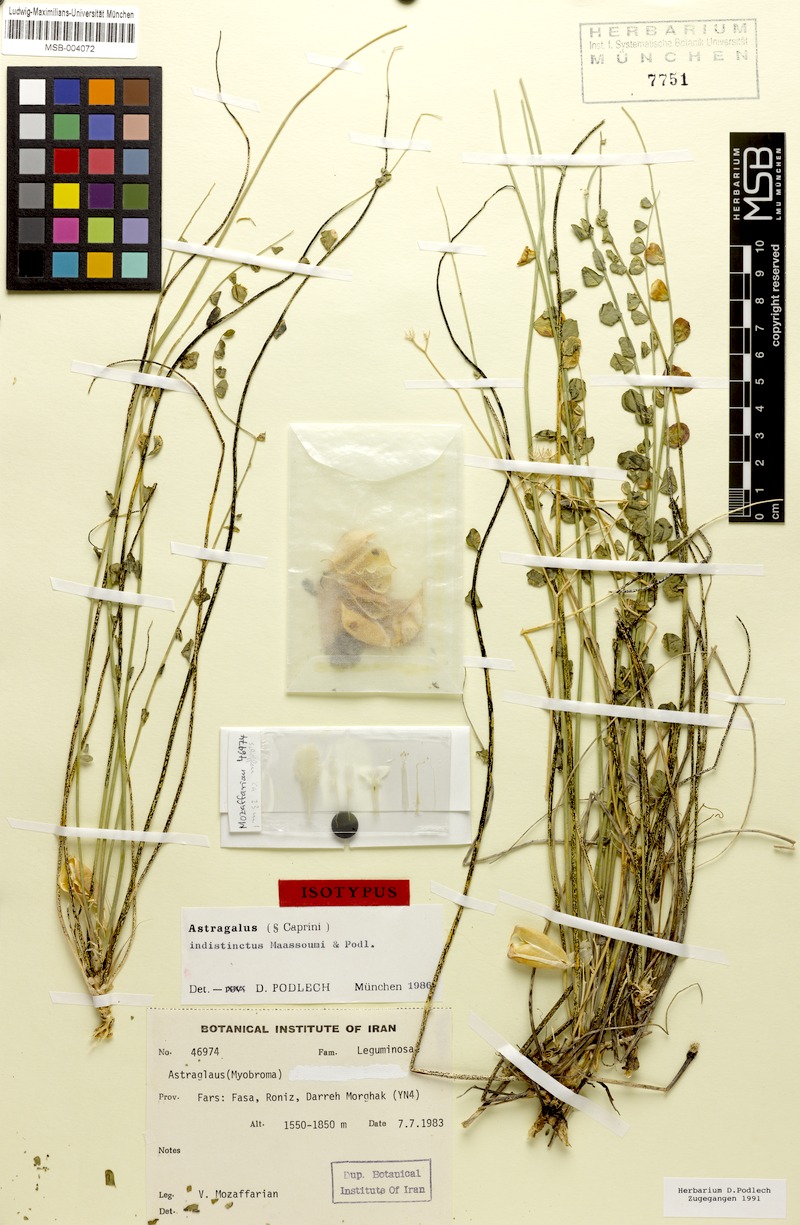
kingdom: Plantae
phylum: Tracheophyta
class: Magnoliopsida
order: Fabales
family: Fabaceae
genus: Astragalus
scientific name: Astragalus indistinctus
